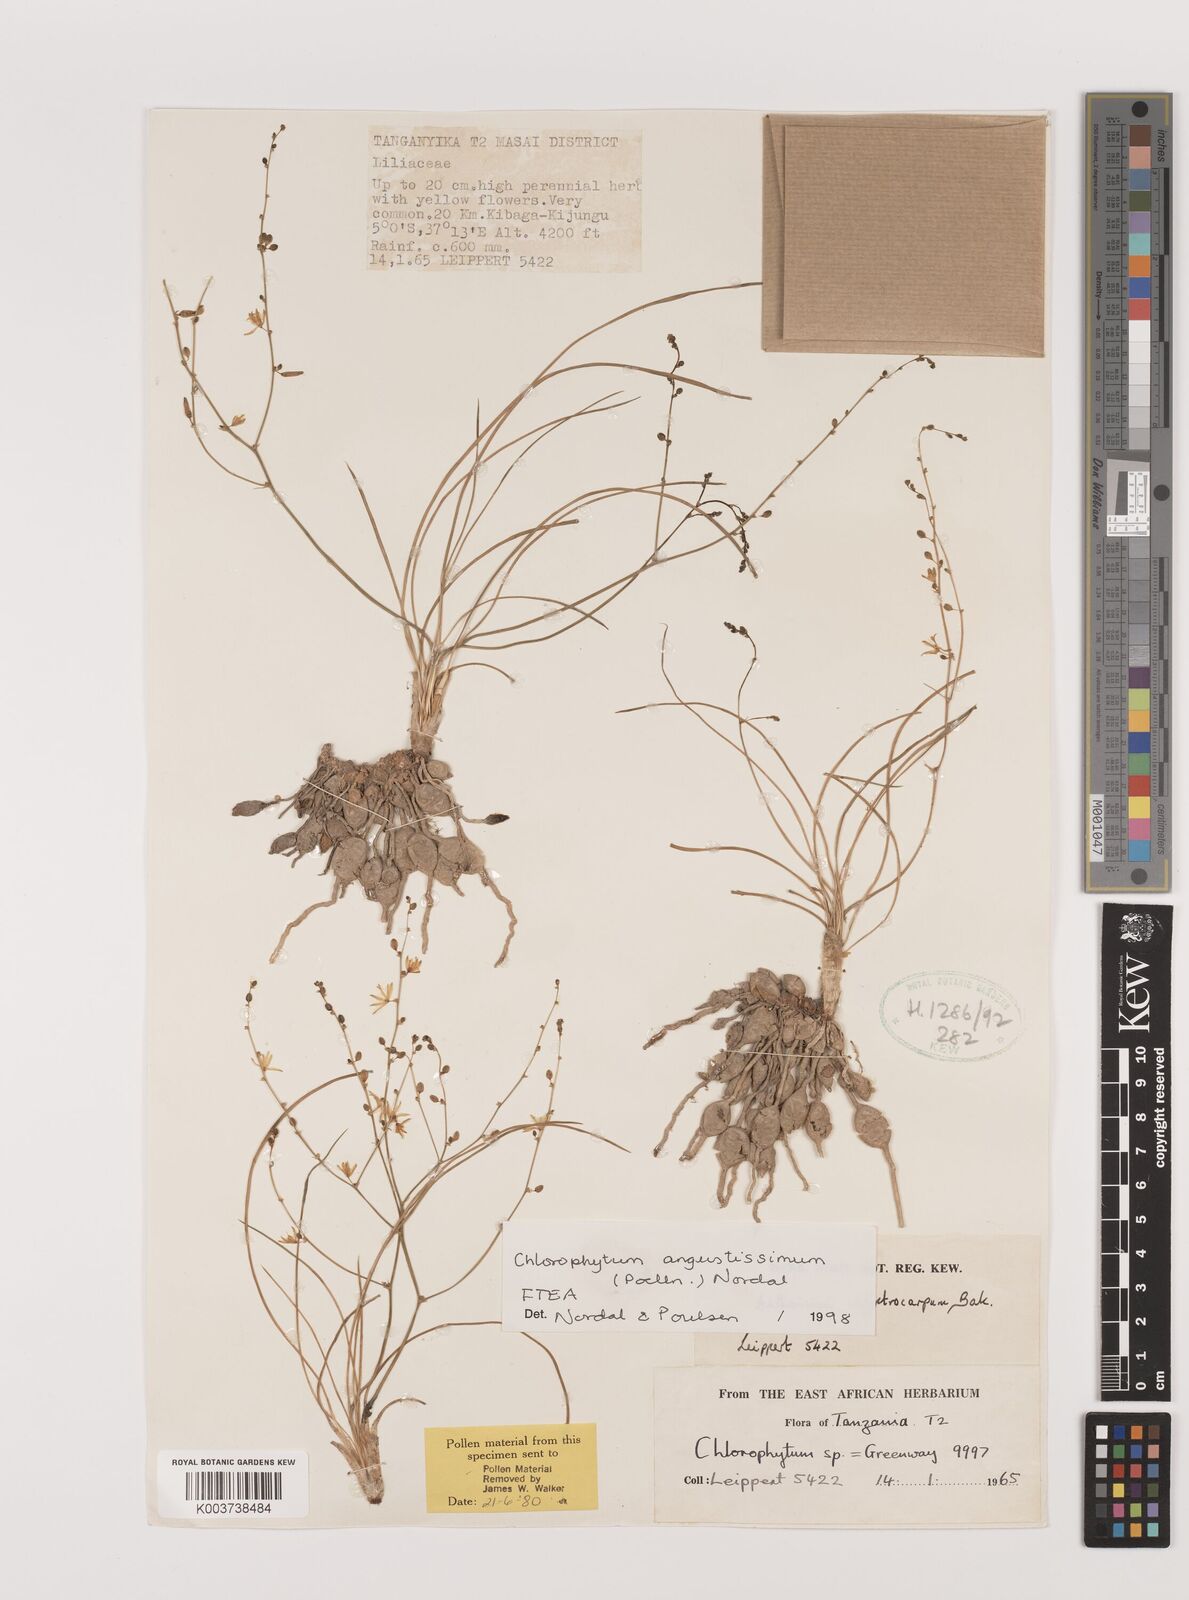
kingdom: Plantae
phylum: Tracheophyta
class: Liliopsida
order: Asparagales
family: Asparagaceae
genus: Chlorophytum
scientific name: Chlorophytum angustissimum
